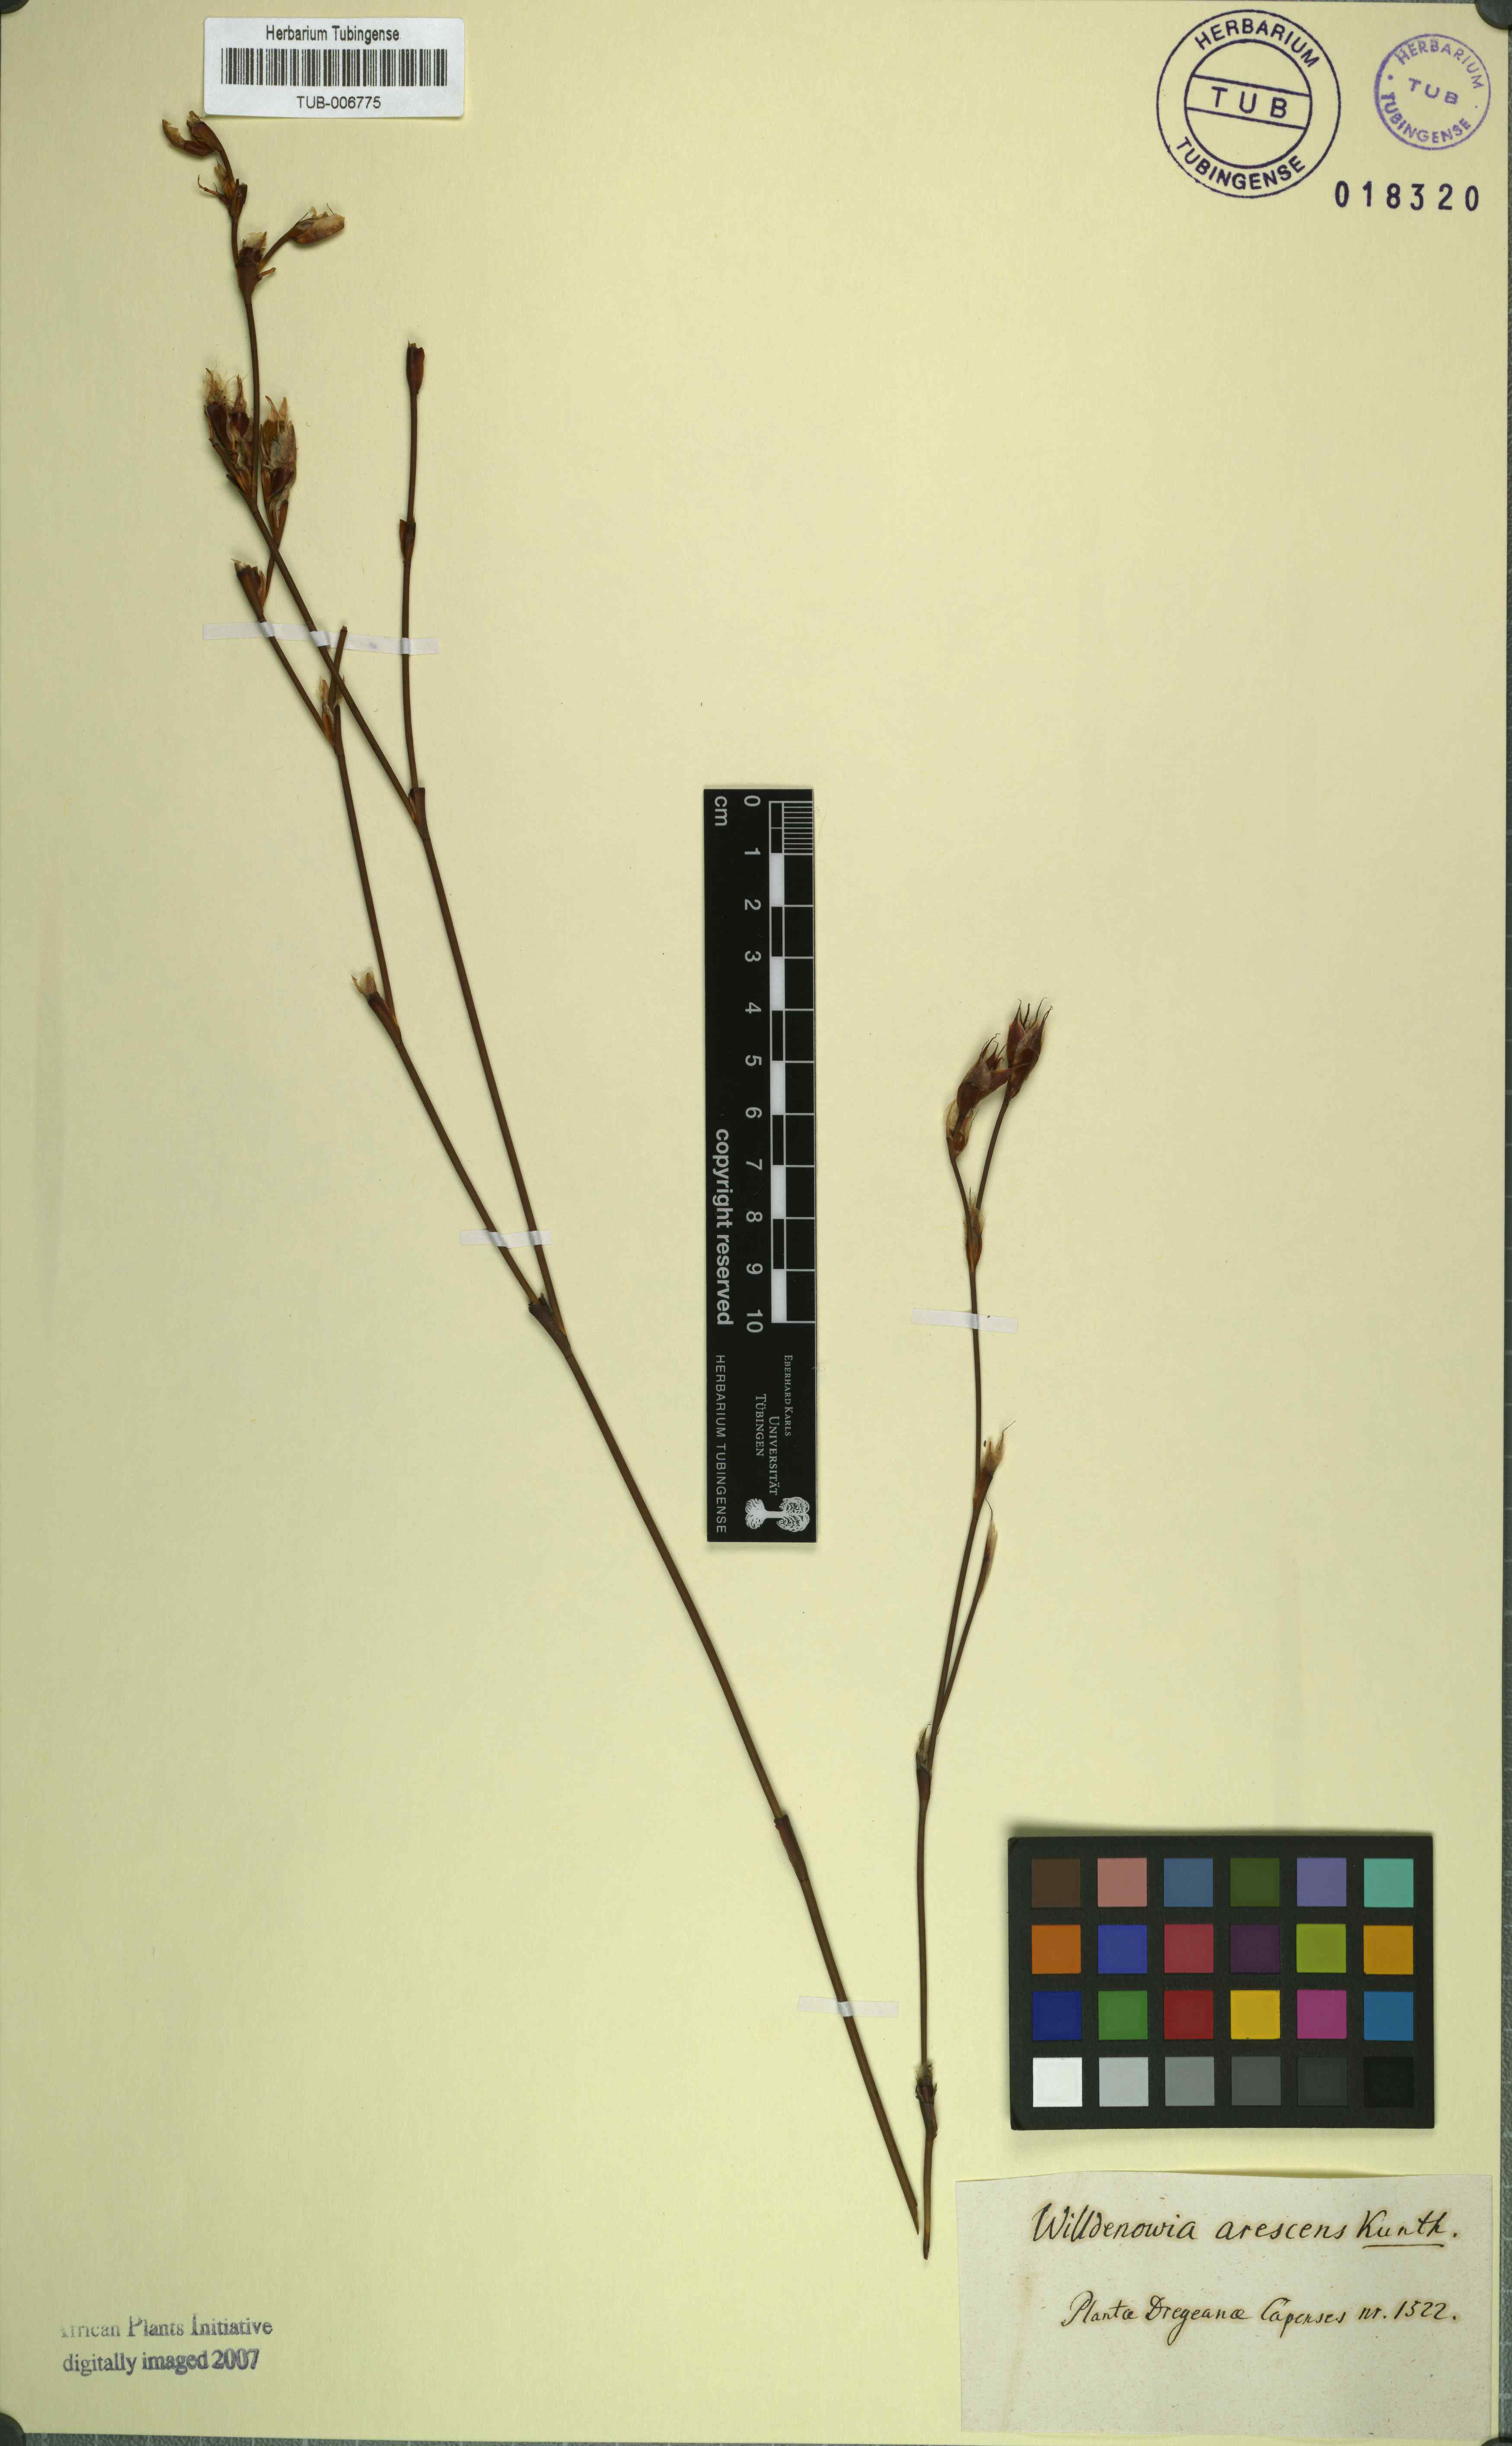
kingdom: Plantae
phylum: Tracheophyta
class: Liliopsida
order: Poales
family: Restionaceae
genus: Willdenowia
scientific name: Willdenowia arescens
